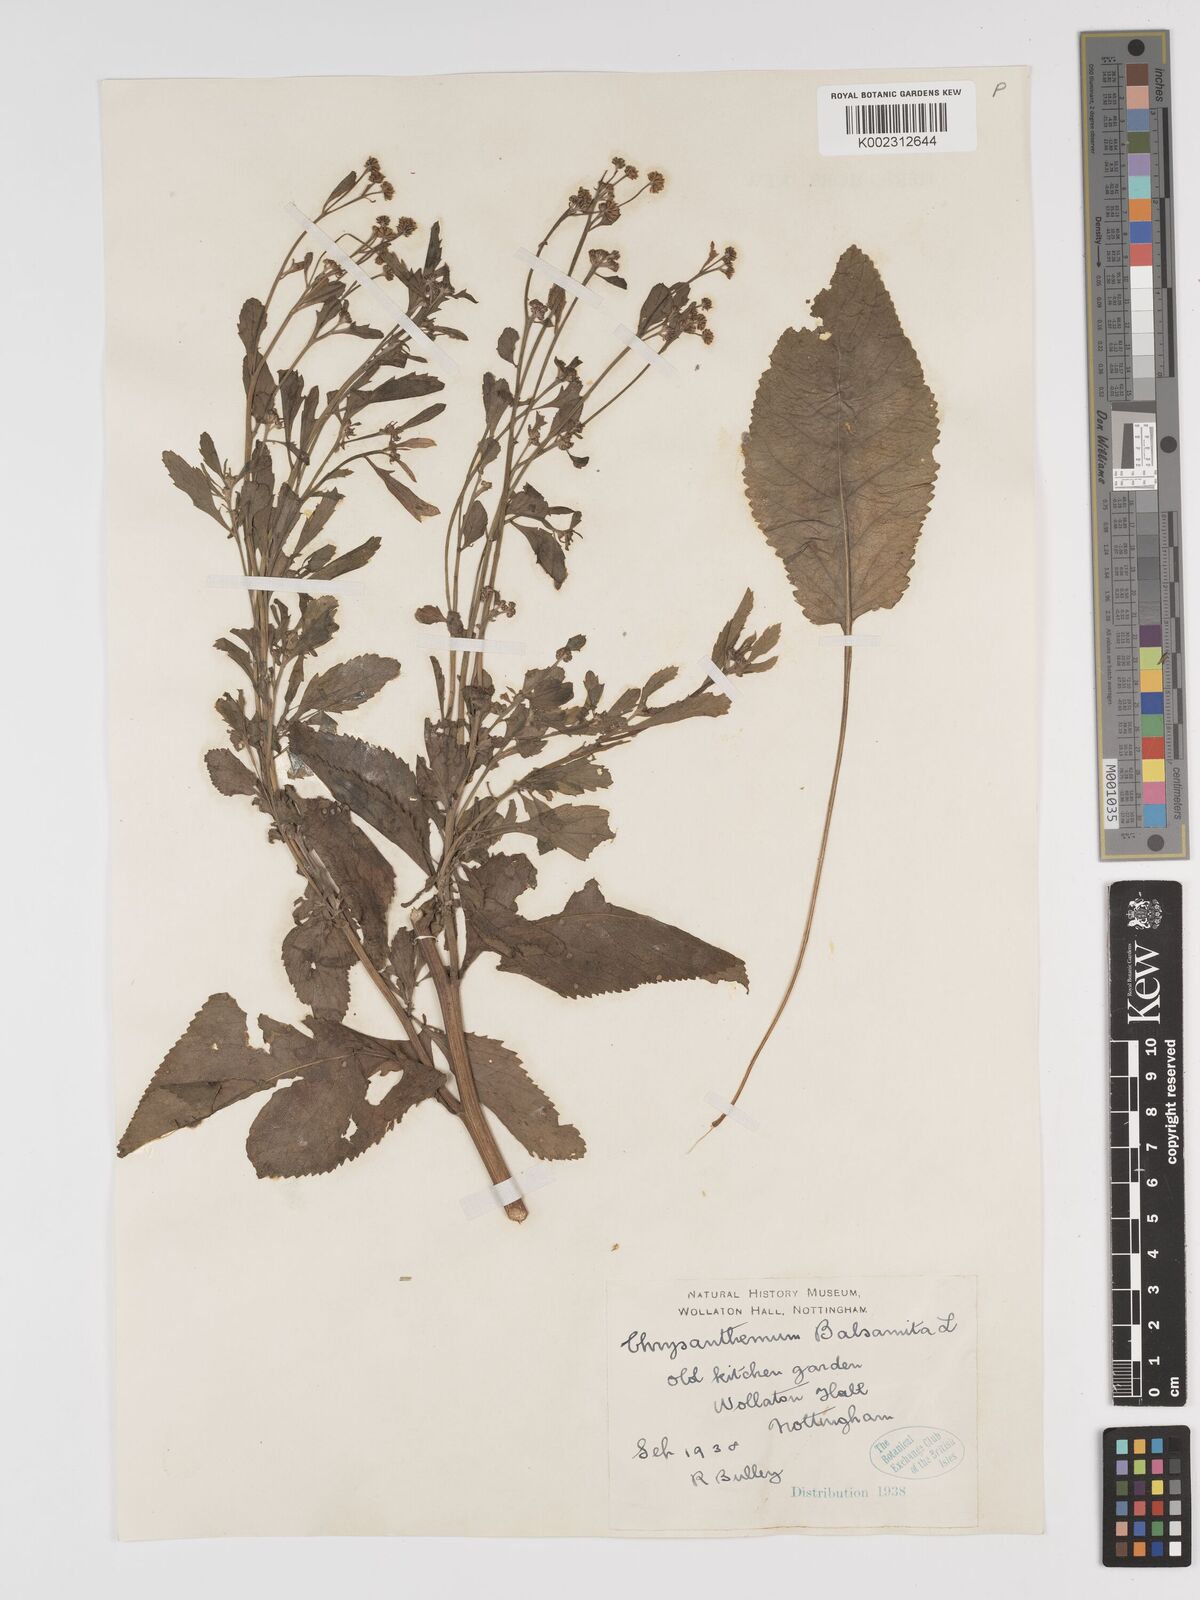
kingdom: Plantae
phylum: Tracheophyta
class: Magnoliopsida
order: Asterales
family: Asteraceae
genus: Tanacetum
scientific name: Tanacetum balsamita
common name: Costmary
